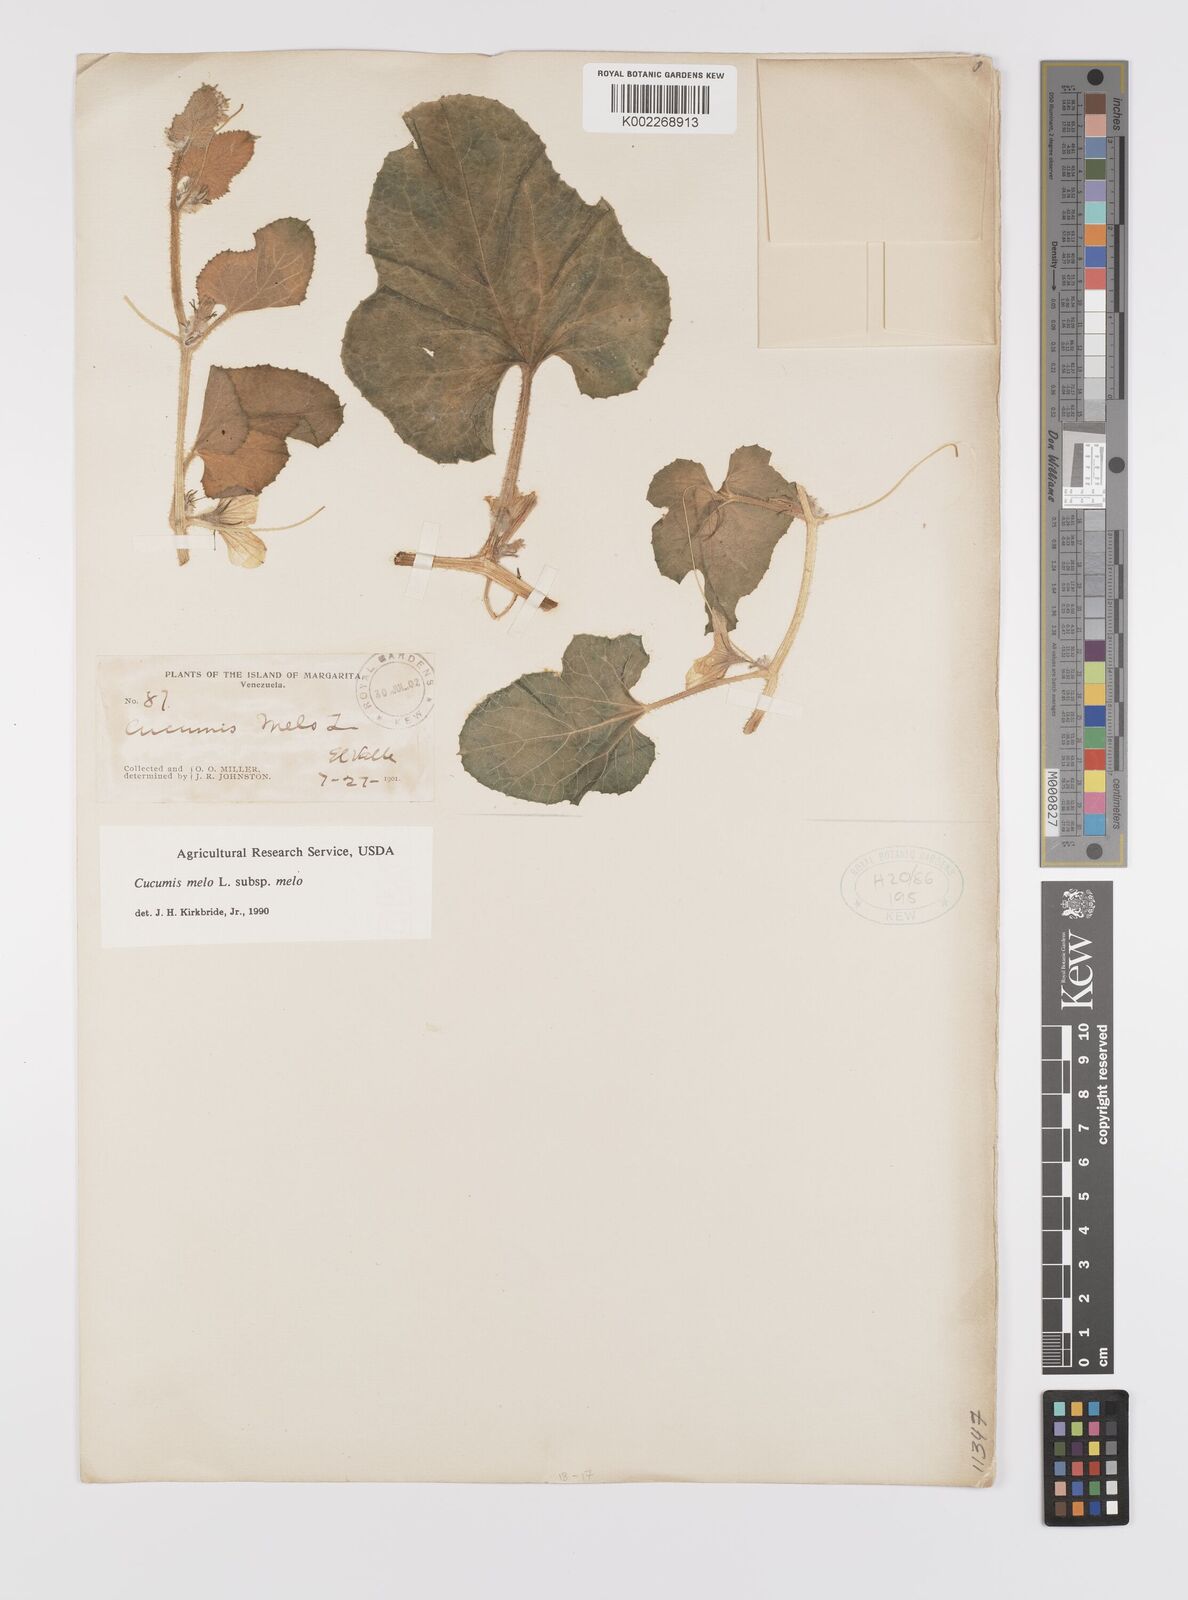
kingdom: Plantae
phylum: Tracheophyta
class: Magnoliopsida
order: Cucurbitales
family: Cucurbitaceae
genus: Cucumis
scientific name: Cucumis melo
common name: Melon
